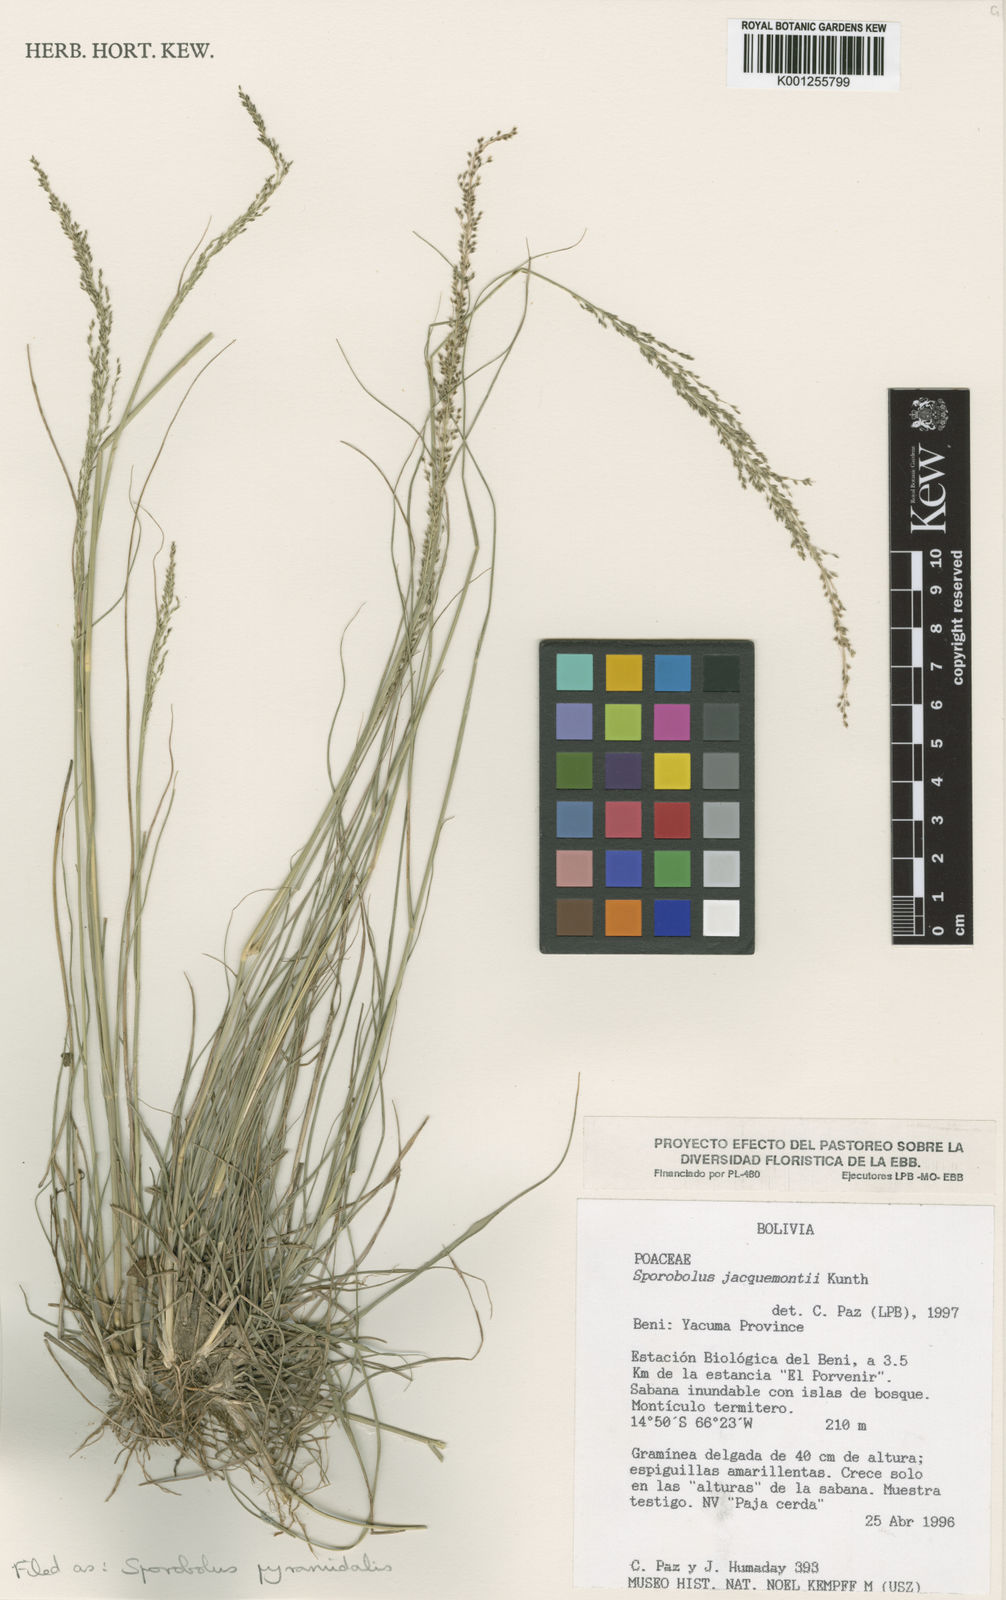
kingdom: Plantae
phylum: Tracheophyta
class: Liliopsida
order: Poales
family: Poaceae
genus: Sporobolus
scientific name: Sporobolus pyramidalis
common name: West indian dropseed
